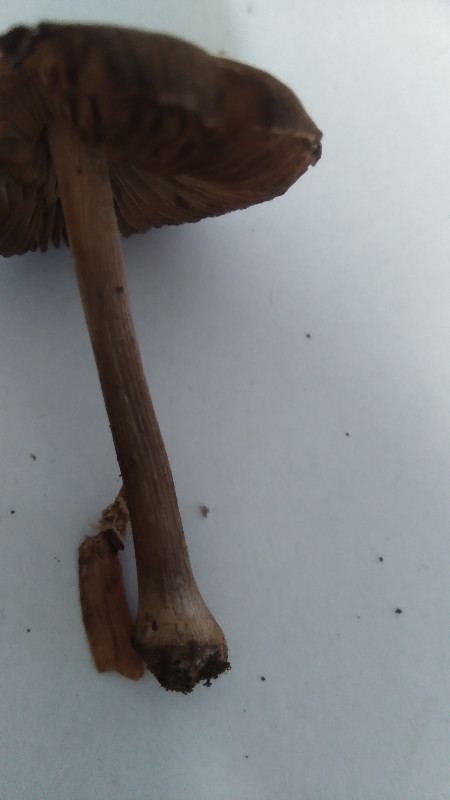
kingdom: Fungi
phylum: Basidiomycota
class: Agaricomycetes
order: Agaricales
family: Inocybaceae
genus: Inocybe
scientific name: Inocybe napipes
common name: roeknoldet trævlhat
